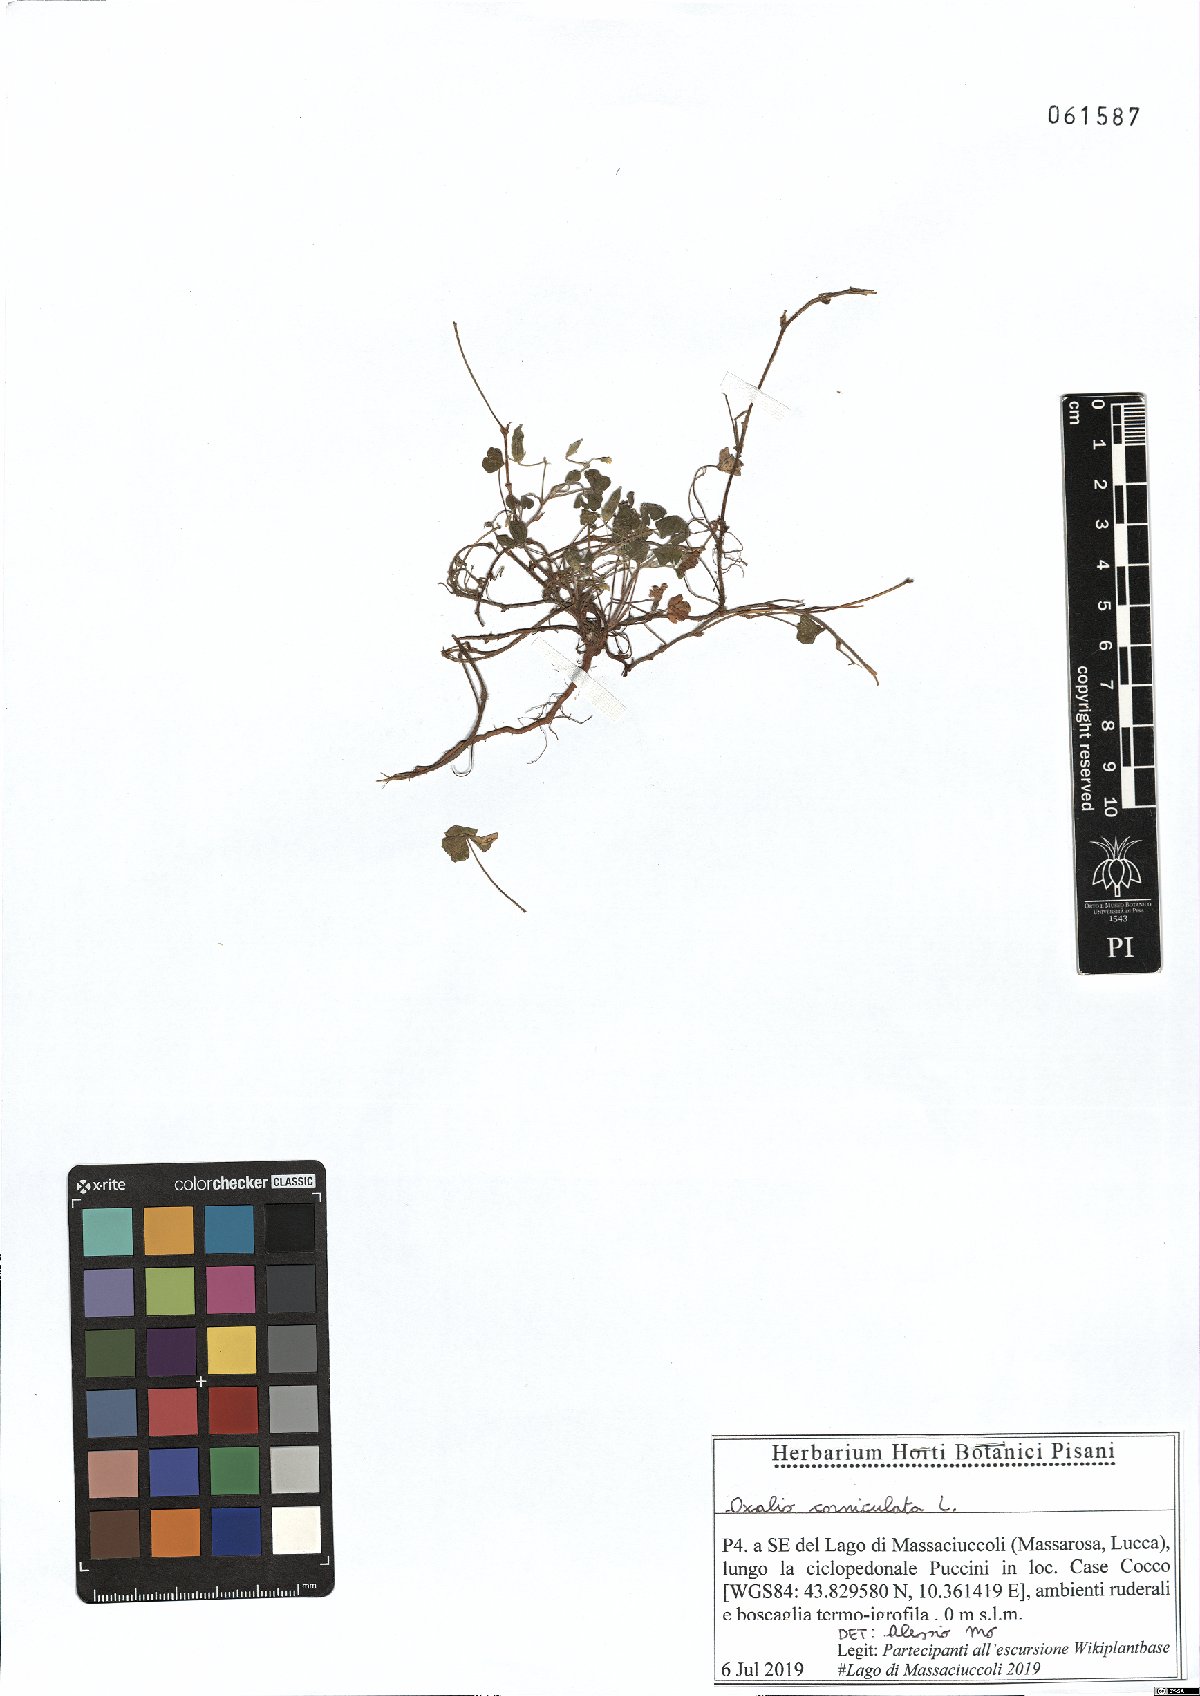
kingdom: Plantae
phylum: Tracheophyta
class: Magnoliopsida
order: Oxalidales
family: Oxalidaceae
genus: Oxalis
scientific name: Oxalis corniculata
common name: Procumbent yellow-sorrel
